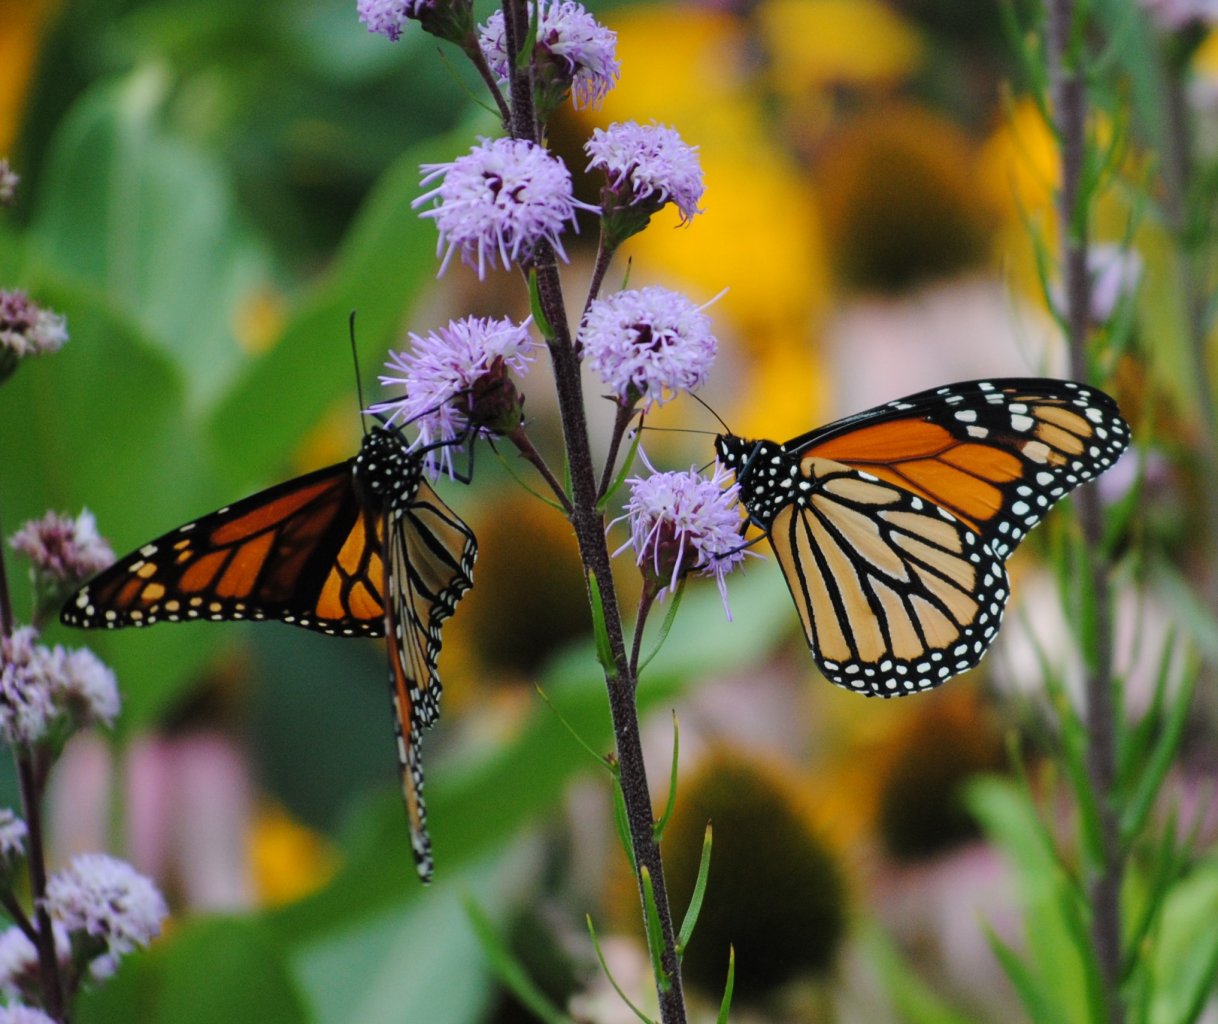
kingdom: Animalia
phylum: Arthropoda
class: Insecta
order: Lepidoptera
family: Nymphalidae
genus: Danaus
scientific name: Danaus plexippus
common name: Monarch
